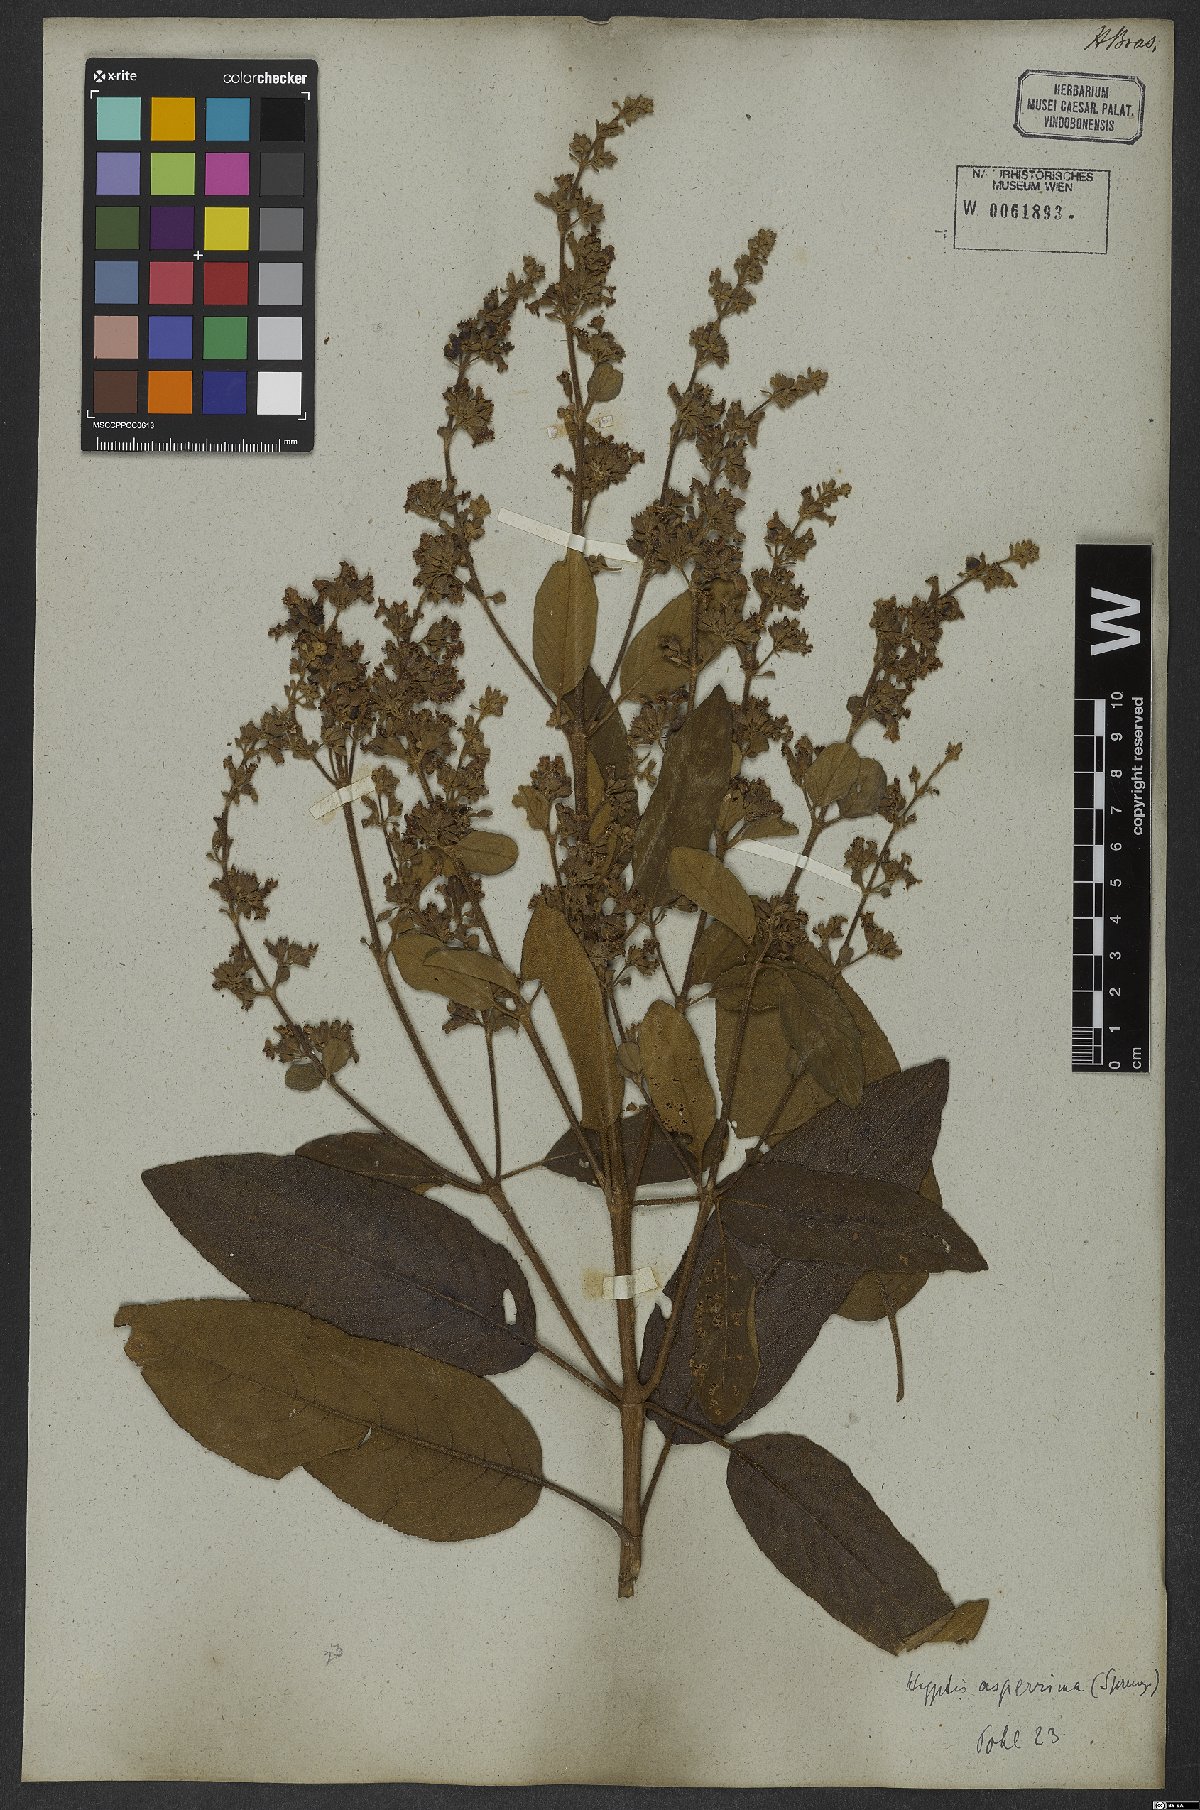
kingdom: Plantae
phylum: Tracheophyta
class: Magnoliopsida
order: Lamiales
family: Lamiaceae
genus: Hyptidendron
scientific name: Hyptidendron asperrimum
